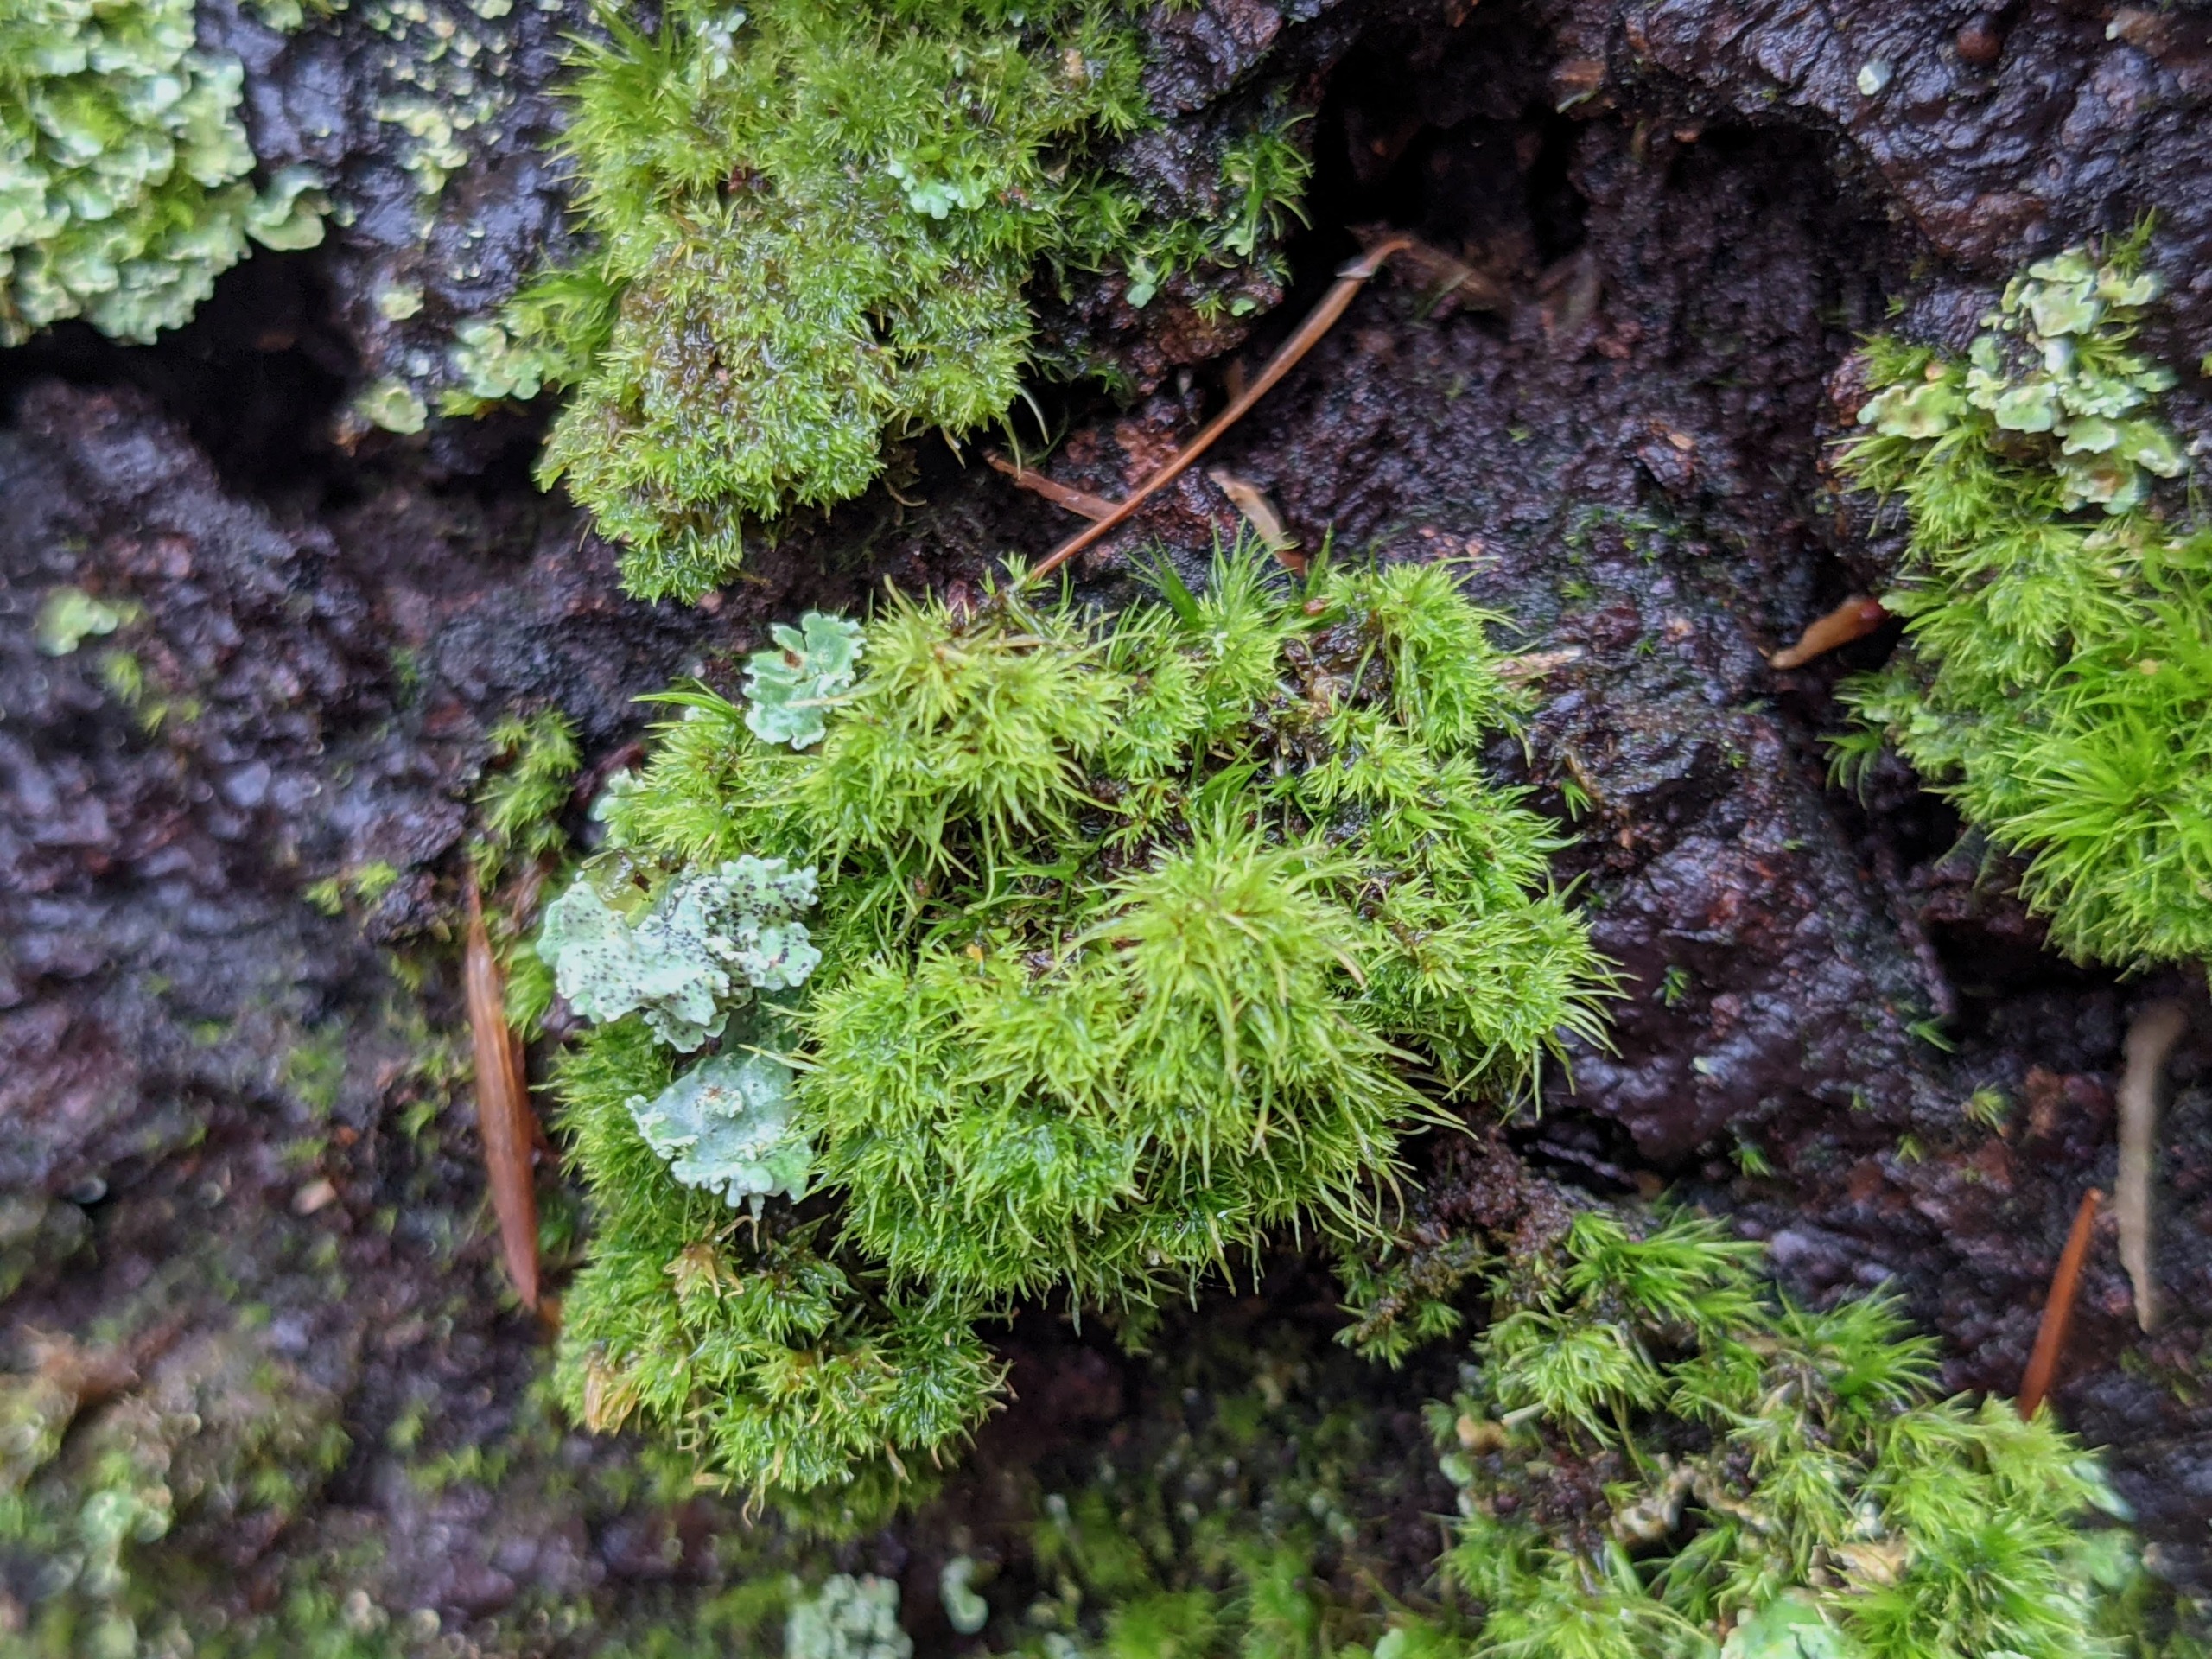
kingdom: Plantae
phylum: Bryophyta
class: Bryopsida
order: Dicranales
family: Dicranaceae
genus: Orthodicranum
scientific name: Orthodicranum montanum
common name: Tæt tyndvinge
